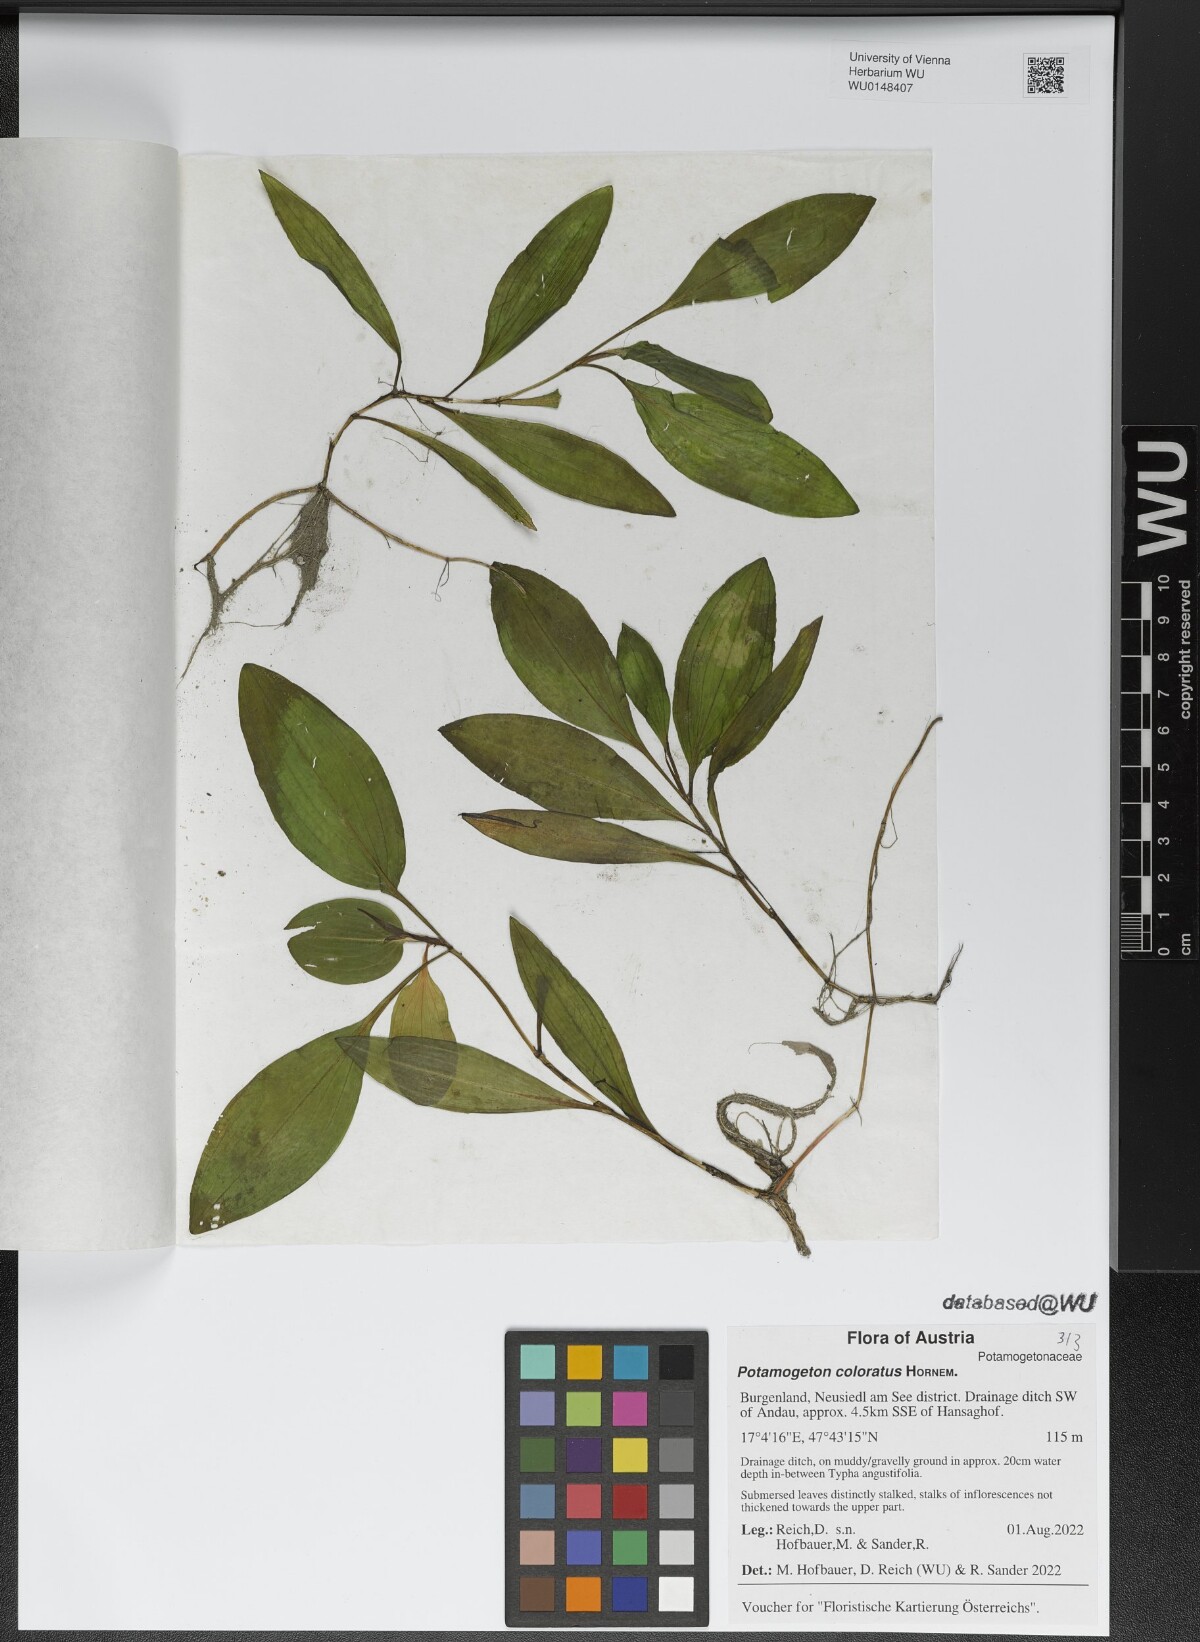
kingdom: Plantae
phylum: Tracheophyta
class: Liliopsida
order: Alismatales
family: Potamogetonaceae
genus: Potamogeton
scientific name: Potamogeton coloratus
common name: Fen pondweed
